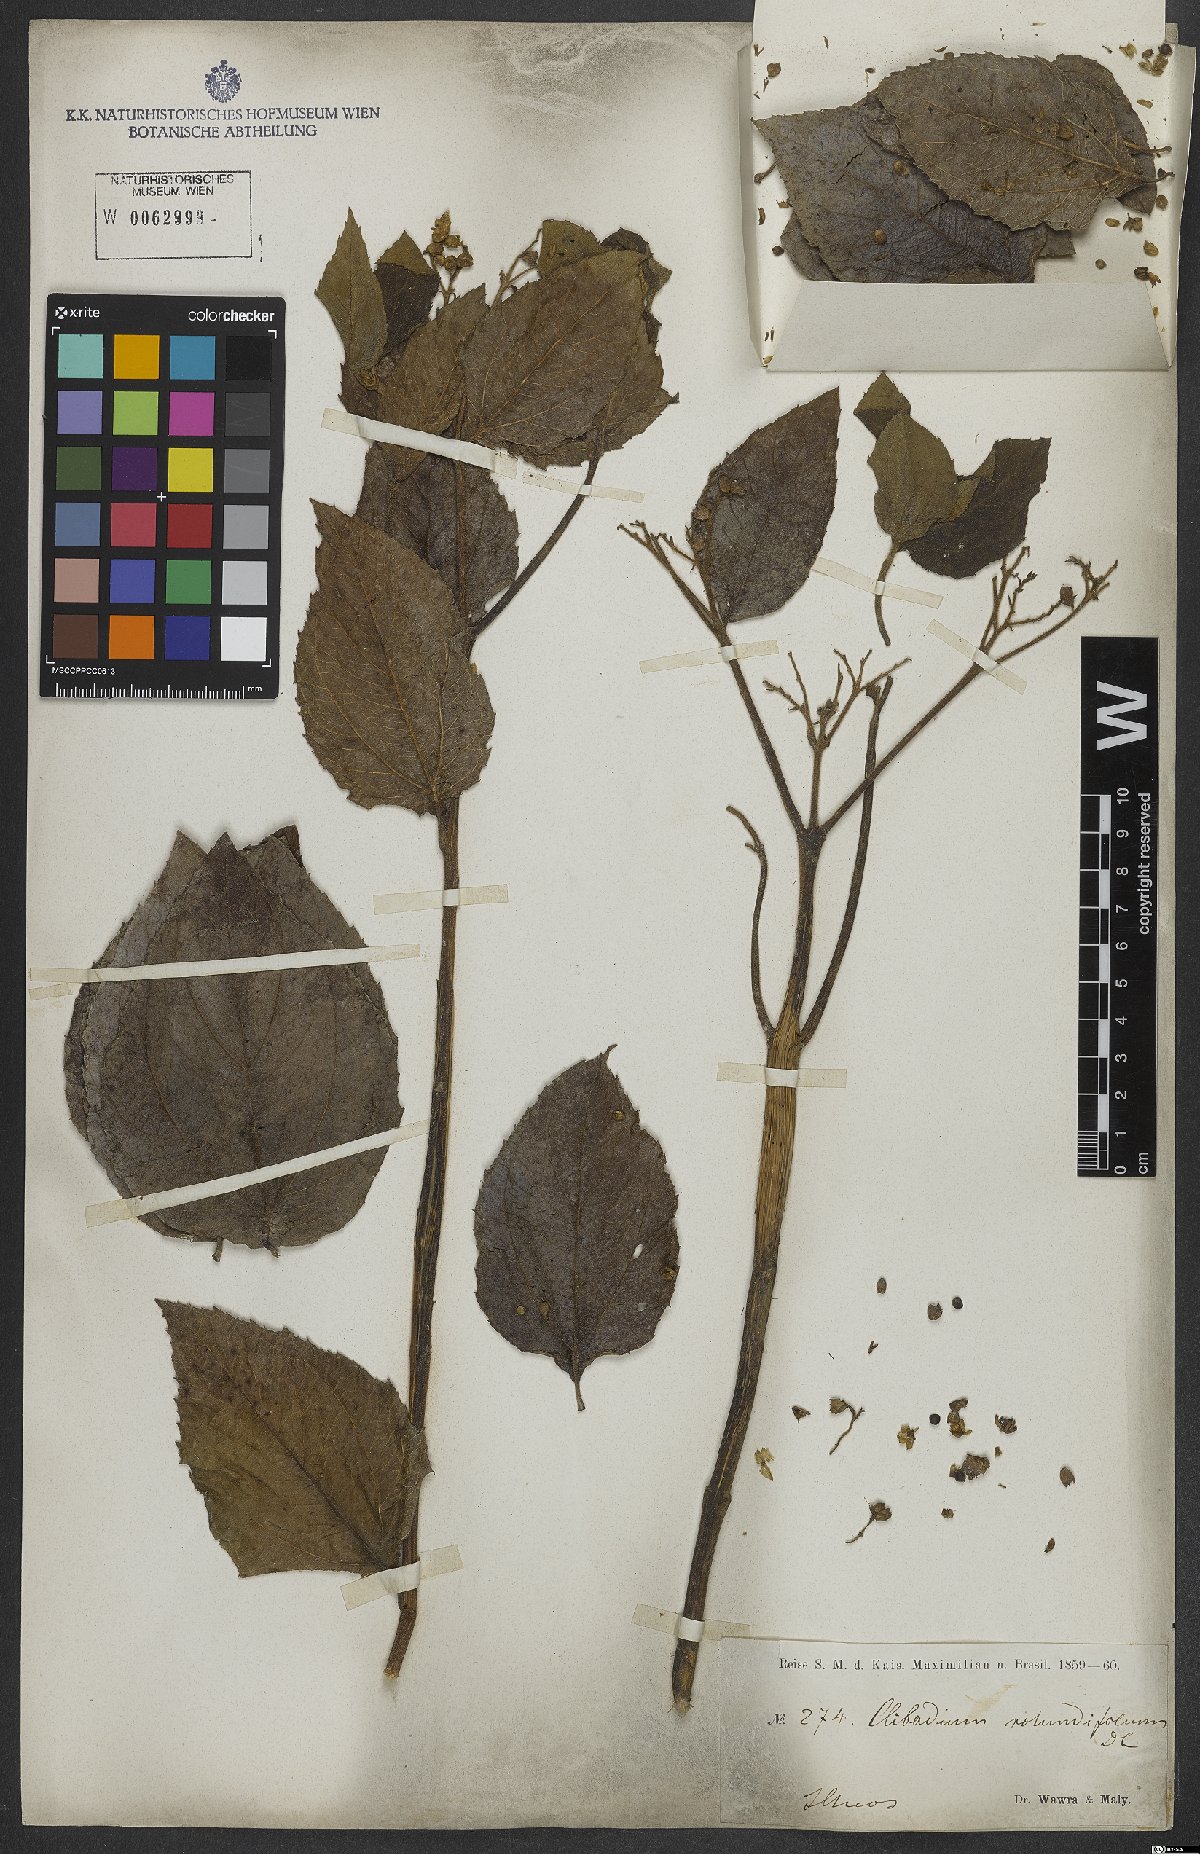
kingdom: Plantae
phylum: Tracheophyta
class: Magnoliopsida
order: Asterales
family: Asteraceae
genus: Clibadium
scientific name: Clibadium armanii
